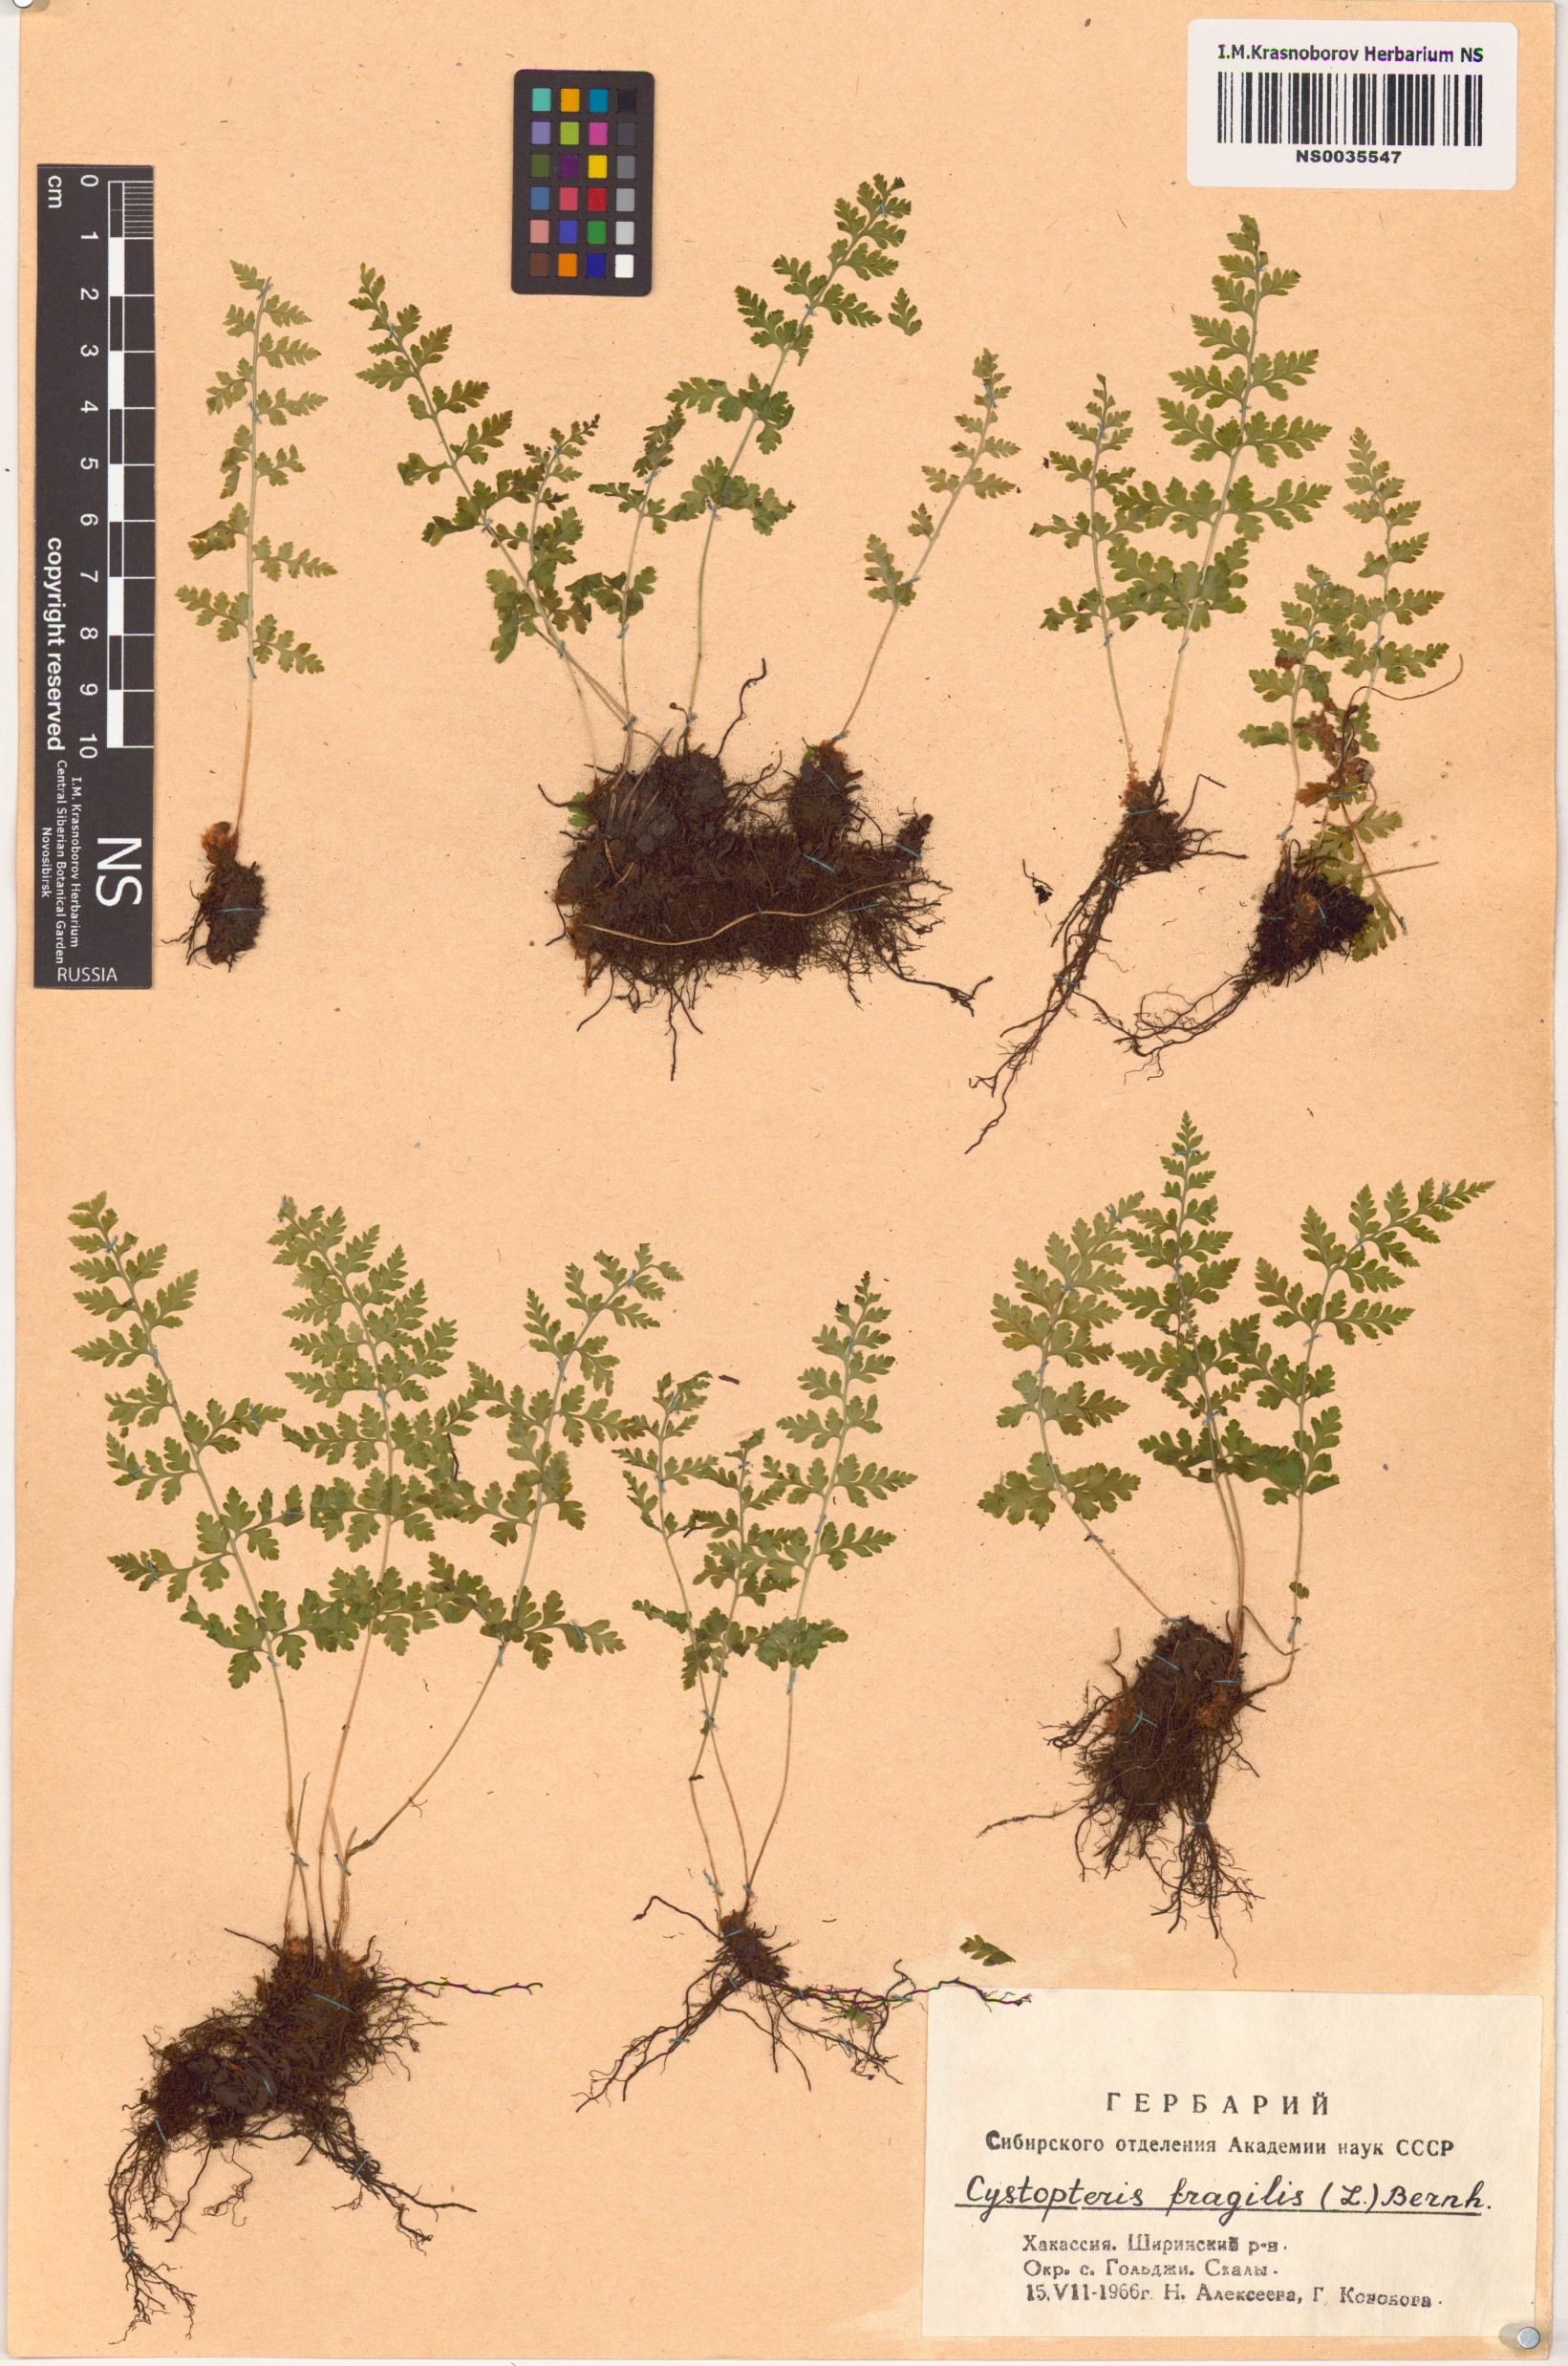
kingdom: Plantae
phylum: Tracheophyta
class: Polypodiopsida
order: Polypodiales
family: Cystopteridaceae
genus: Cystopteris
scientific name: Cystopteris fragilis
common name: Brittle bladder fern
